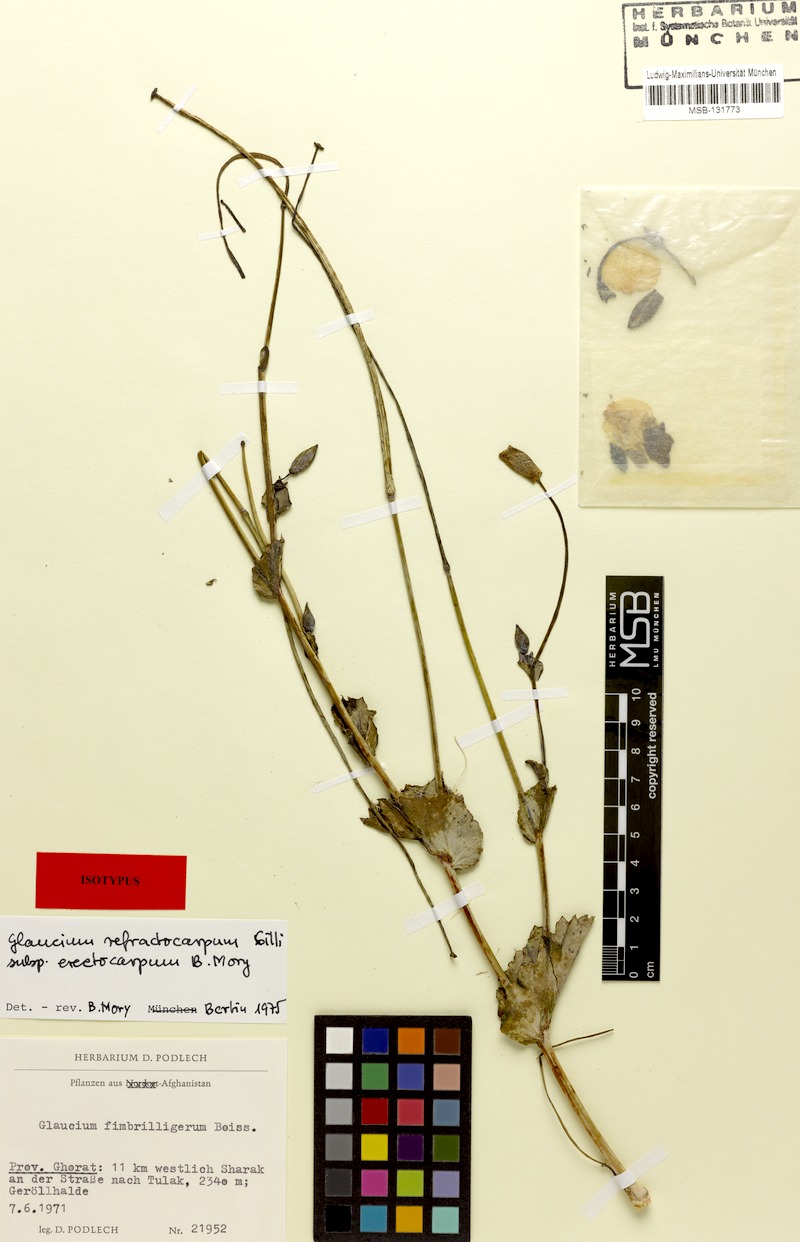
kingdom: Plantae
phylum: Tracheophyta
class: Magnoliopsida
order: Ranunculales
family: Papaveraceae
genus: Glaucium
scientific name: Glaucium refractocarpum
